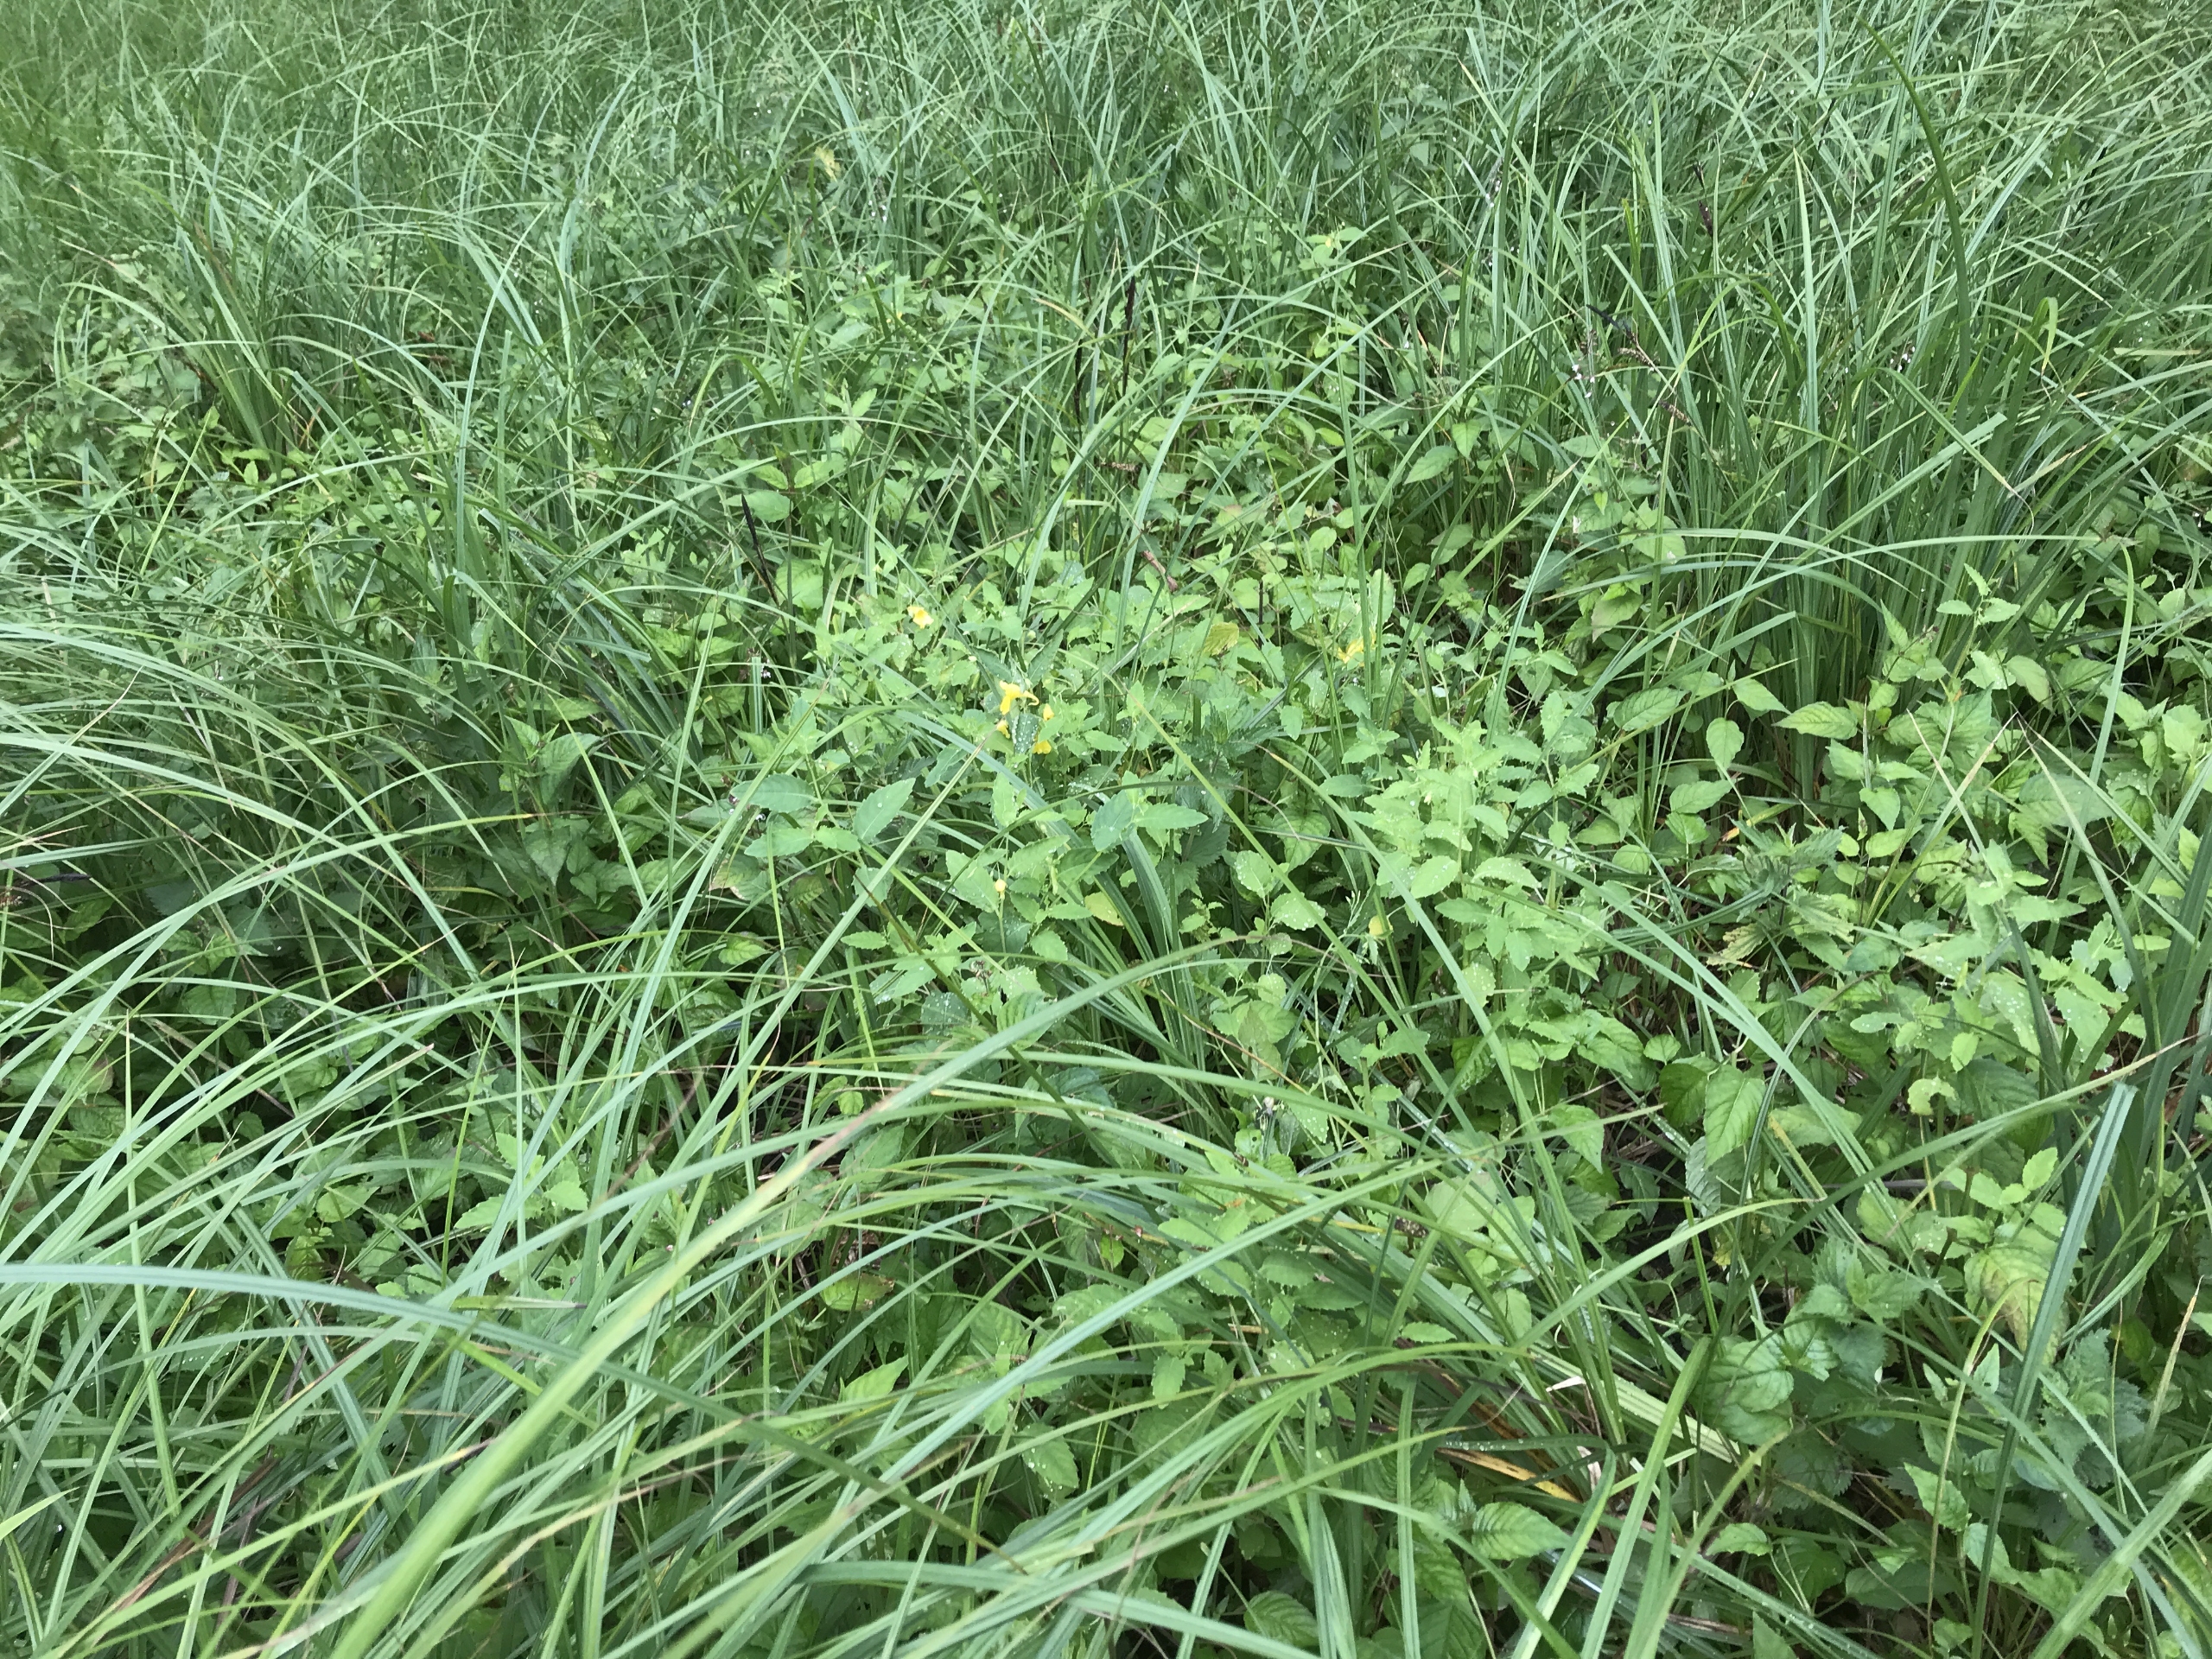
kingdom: Plantae
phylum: Tracheophyta
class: Magnoliopsida
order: Ericales
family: Balsaminaceae
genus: Impatiens
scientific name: Impatiens noli-tangere
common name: Spring-balsamin
